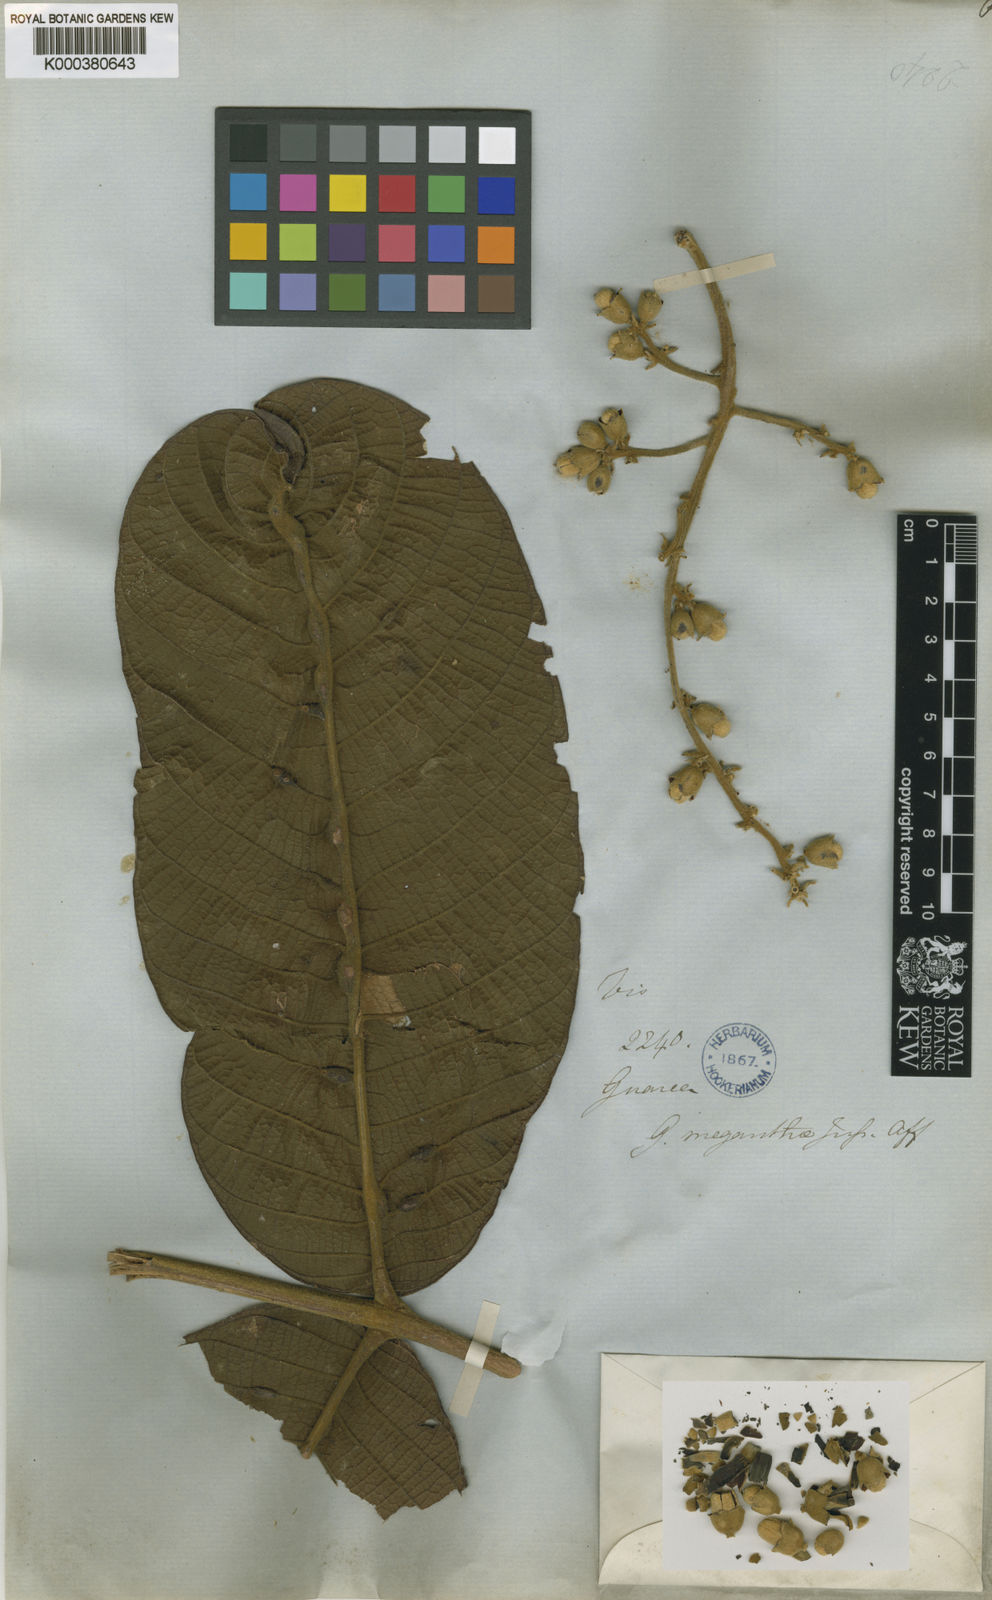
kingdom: Plantae
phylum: Tracheophyta
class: Magnoliopsida
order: Sapindales
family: Meliaceae
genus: Guarea
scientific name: Guarea sprucei
